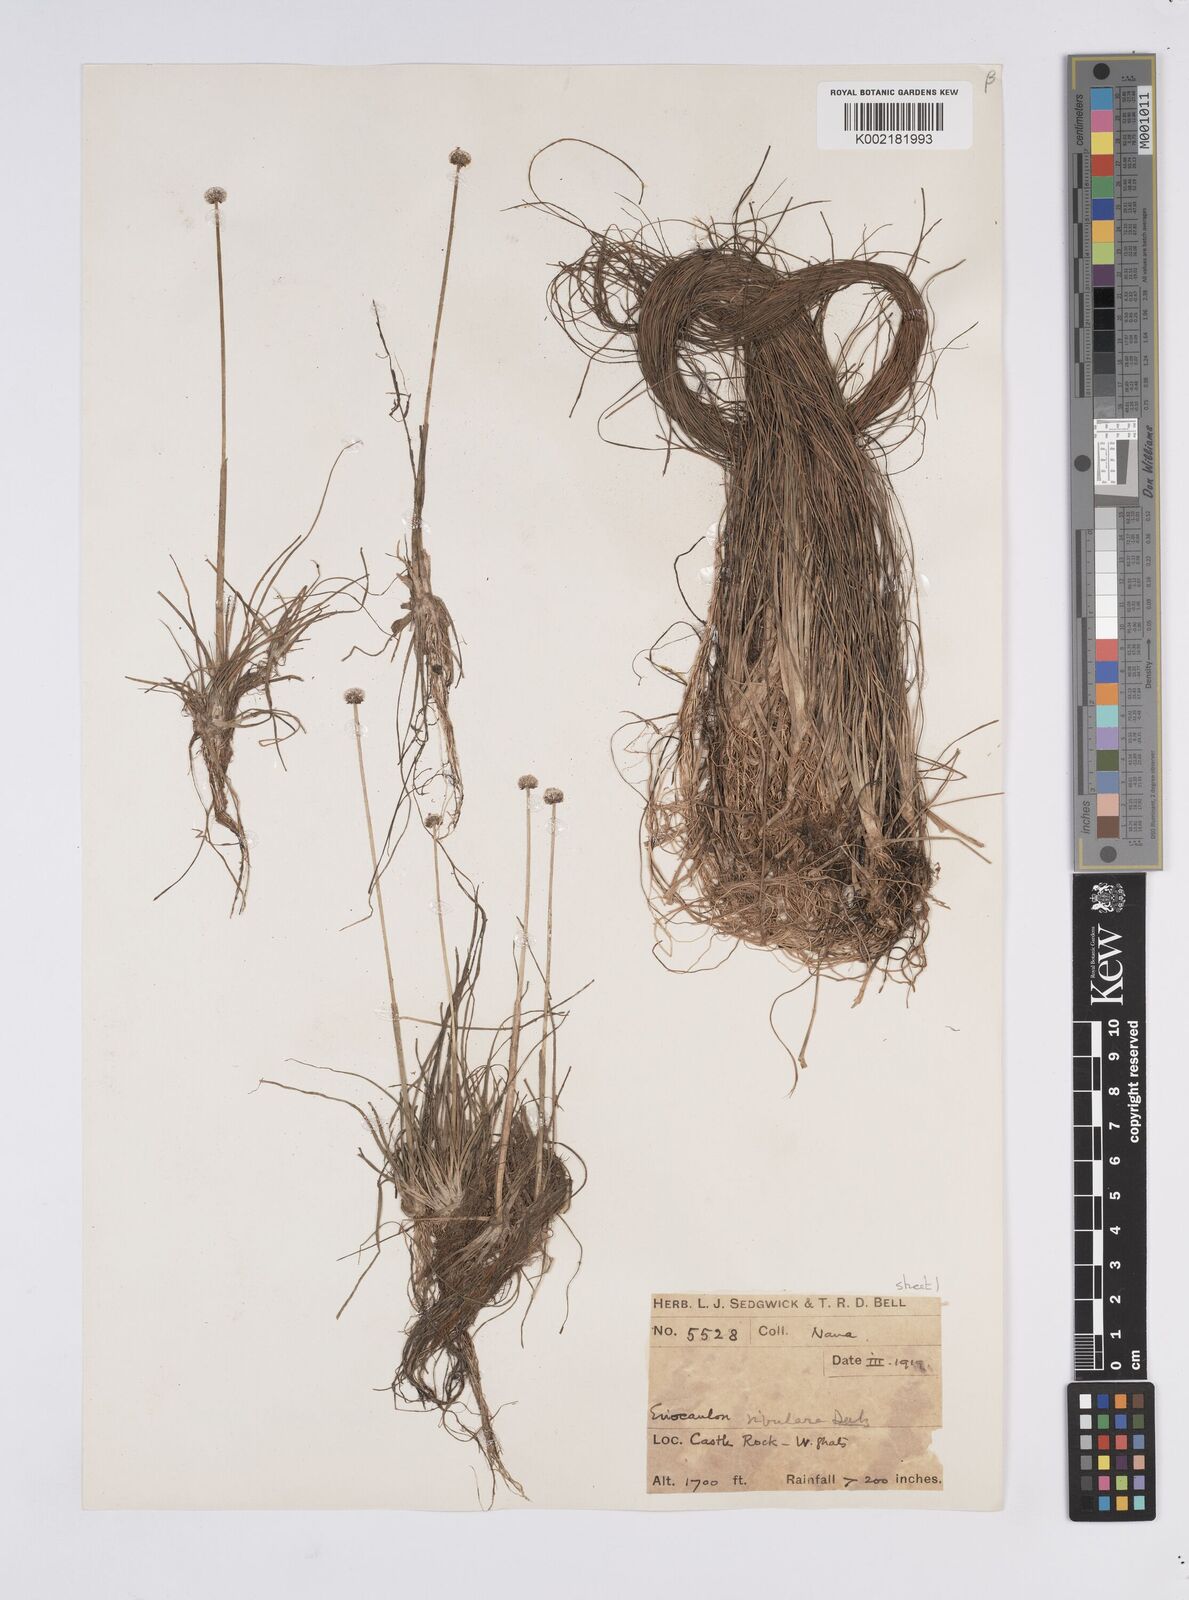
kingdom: Plantae
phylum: Tracheophyta
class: Liliopsida
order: Poales
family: Eriocaulaceae
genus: Eriocaulon
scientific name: Eriocaulon fluviatile
